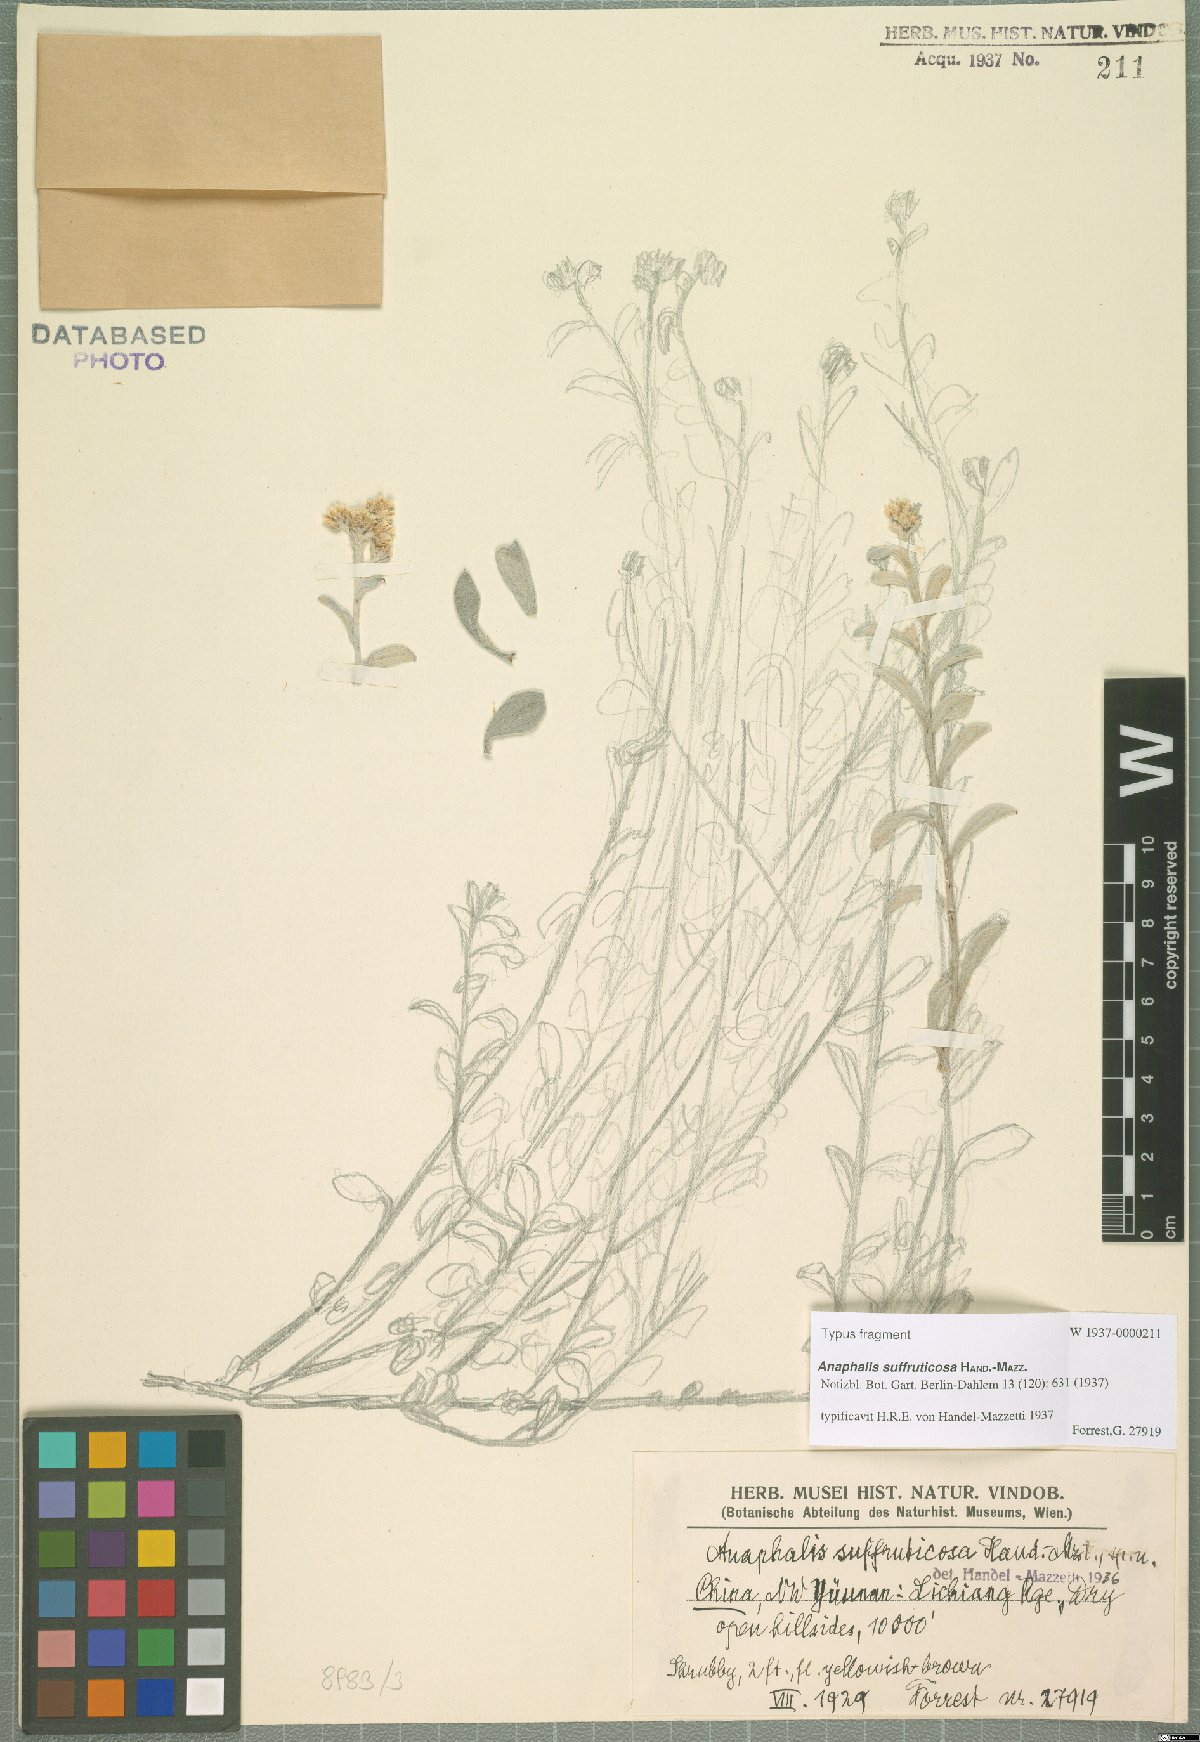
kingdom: Plantae
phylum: Tracheophyta
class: Magnoliopsida
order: Asterales
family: Asteraceae
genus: Anaphalis
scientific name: Anaphalis suffruticosa
